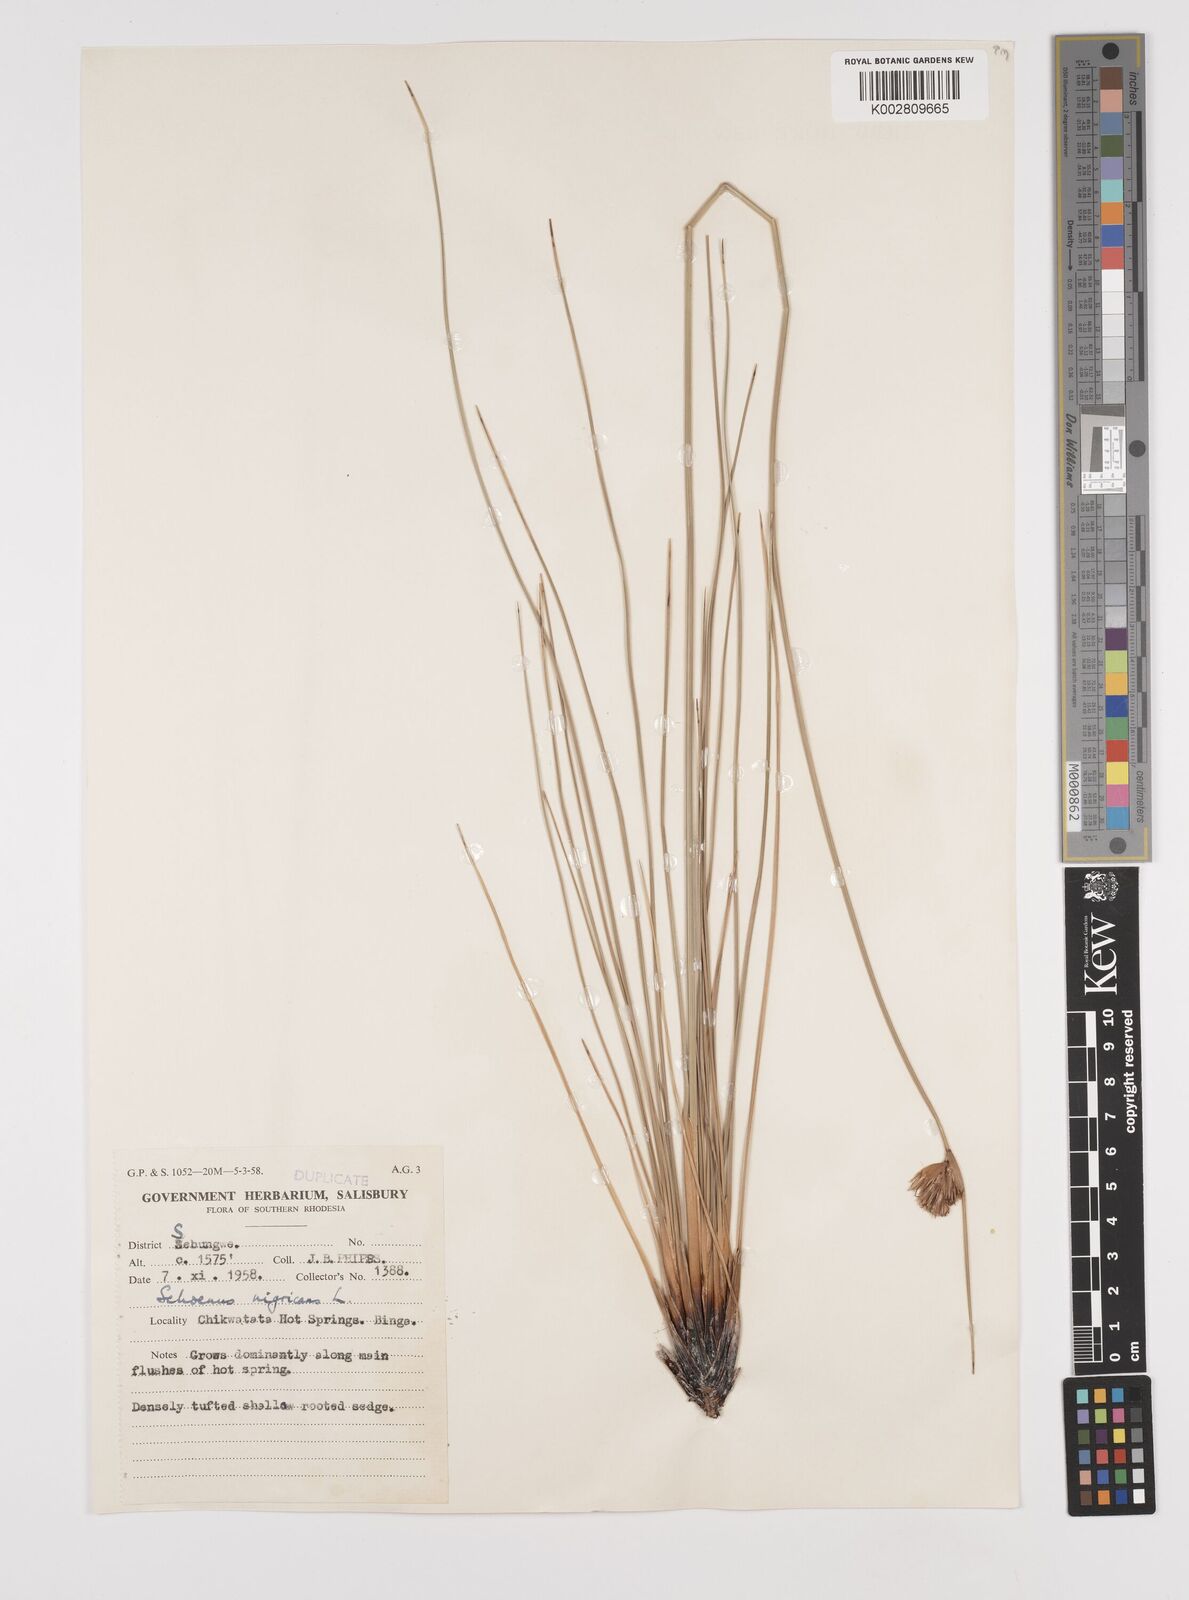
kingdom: Plantae
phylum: Tracheophyta
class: Liliopsida
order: Poales
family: Cyperaceae
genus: Schoenus
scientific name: Schoenus nigricans
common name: Black bog-rush
